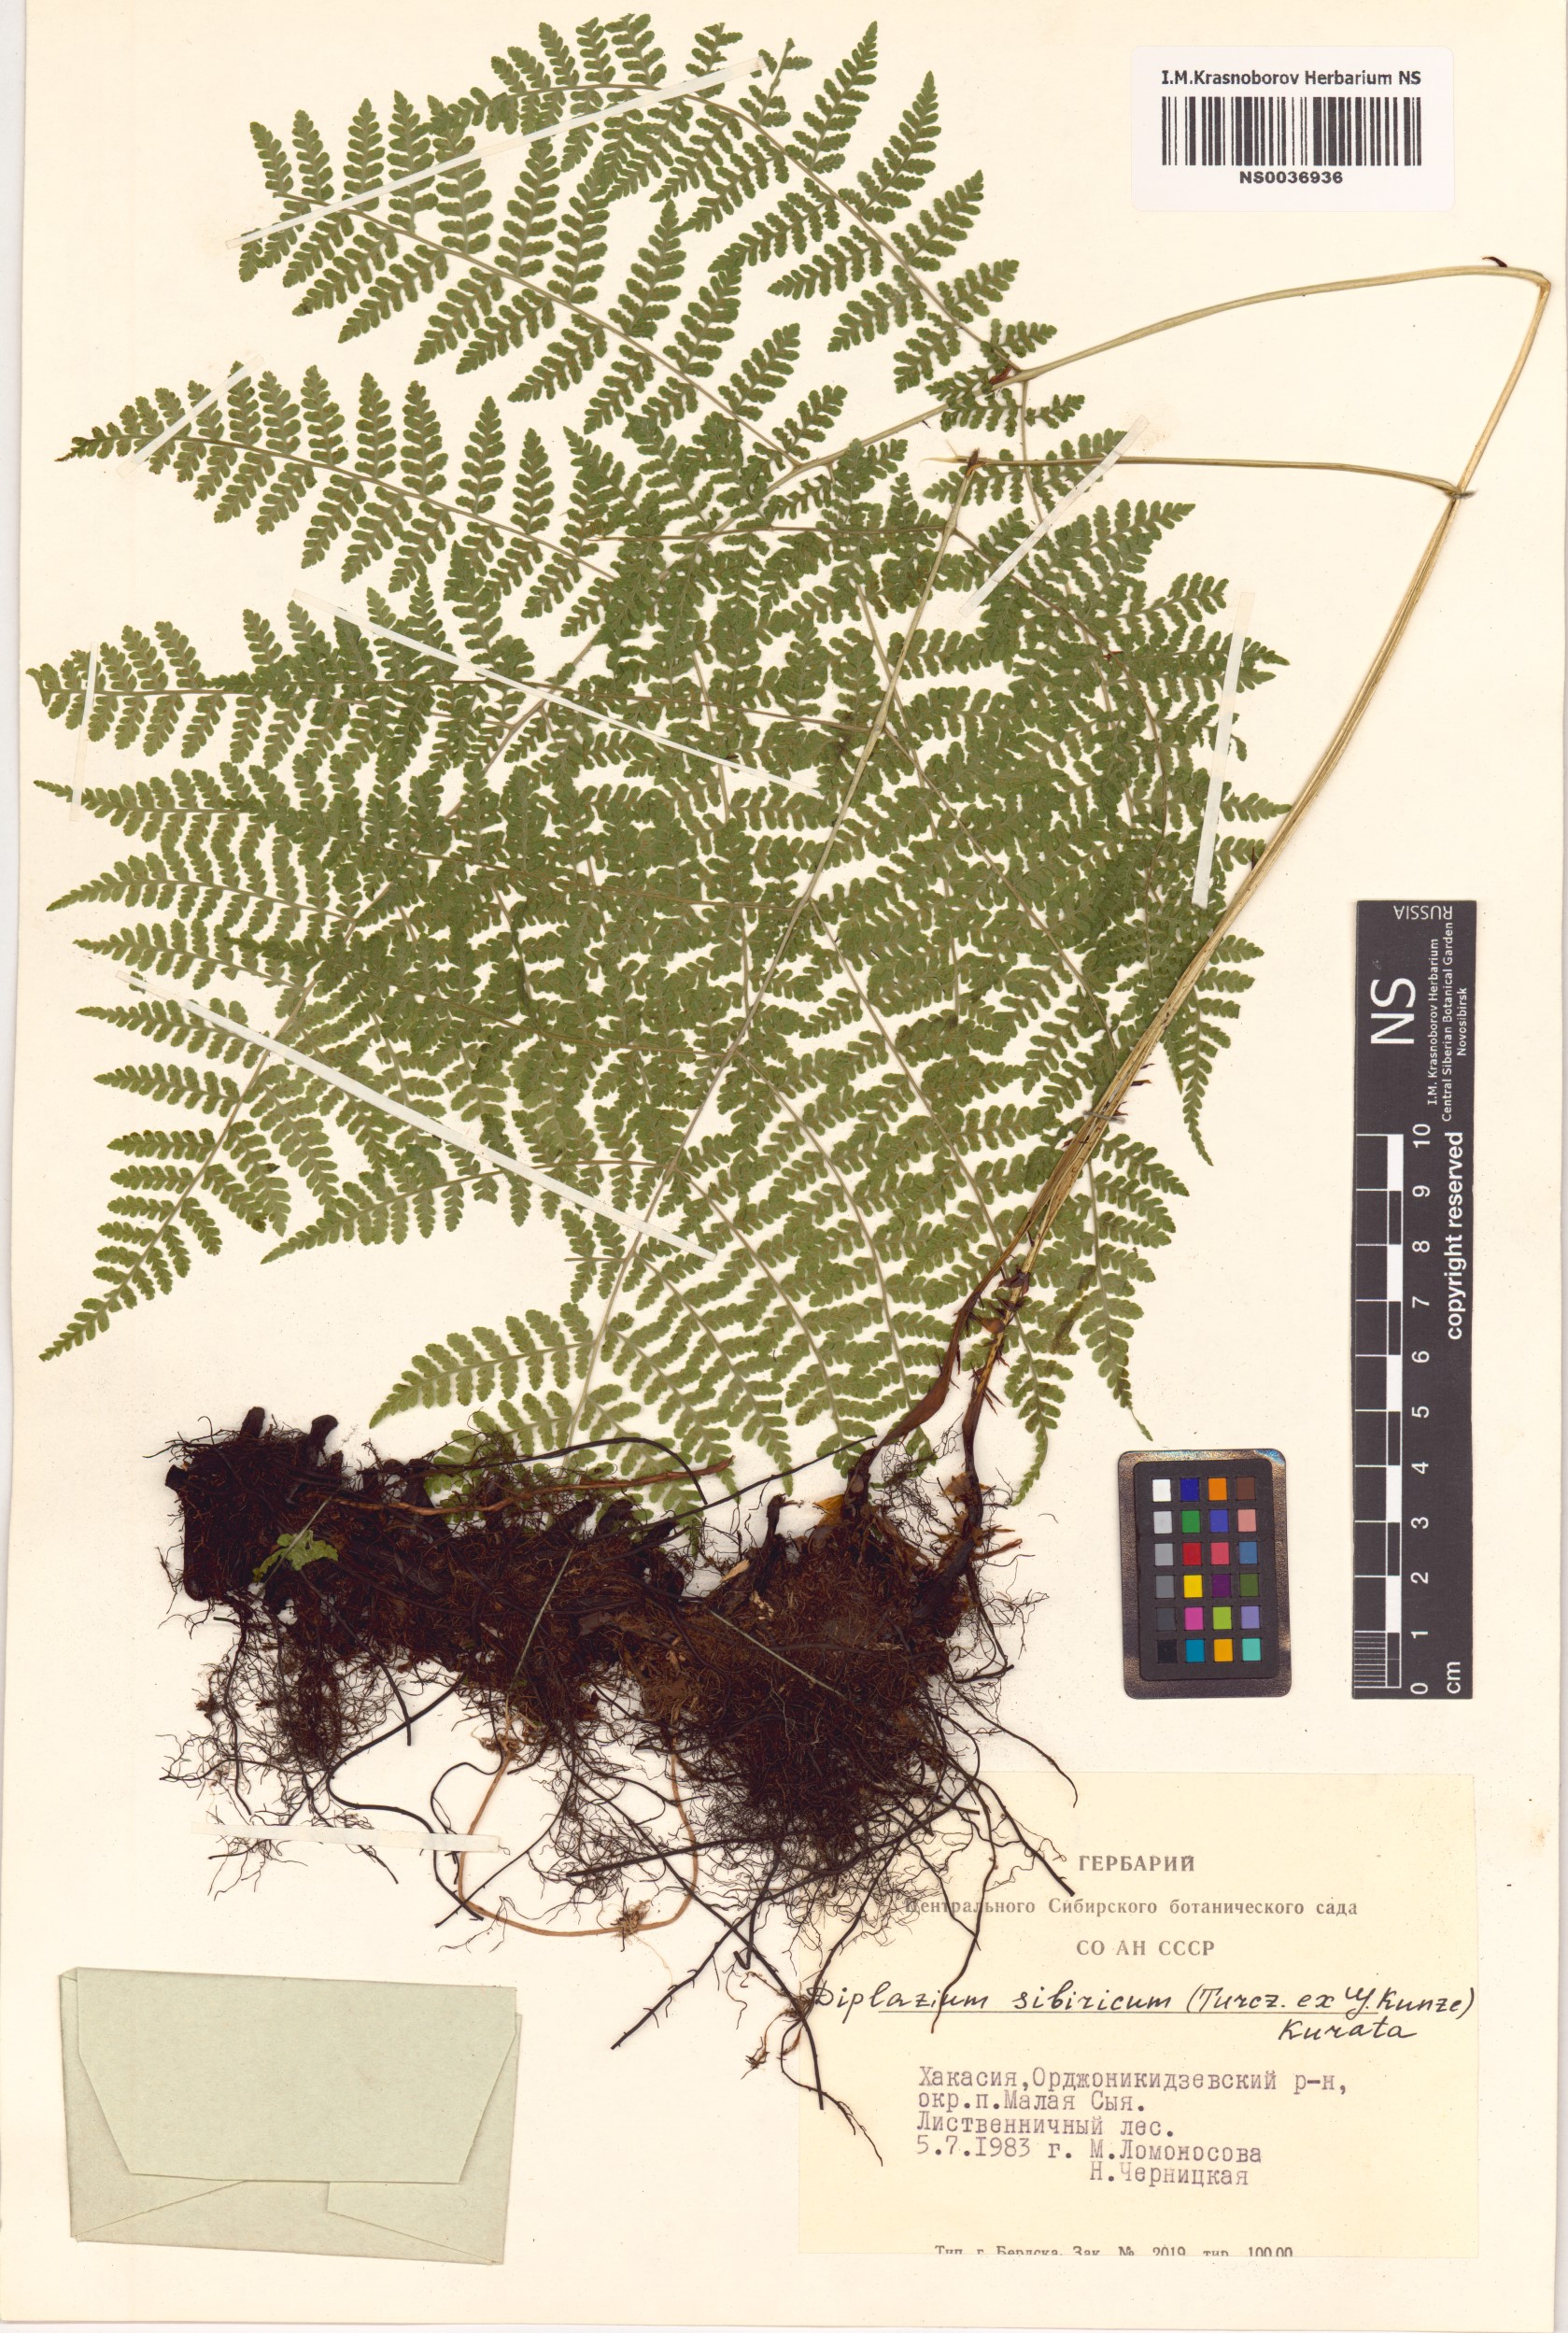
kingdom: Plantae
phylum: Tracheophyta
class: Polypodiopsida
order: Polypodiales
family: Athyriaceae
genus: Diplazium
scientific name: Diplazium sibiricum
